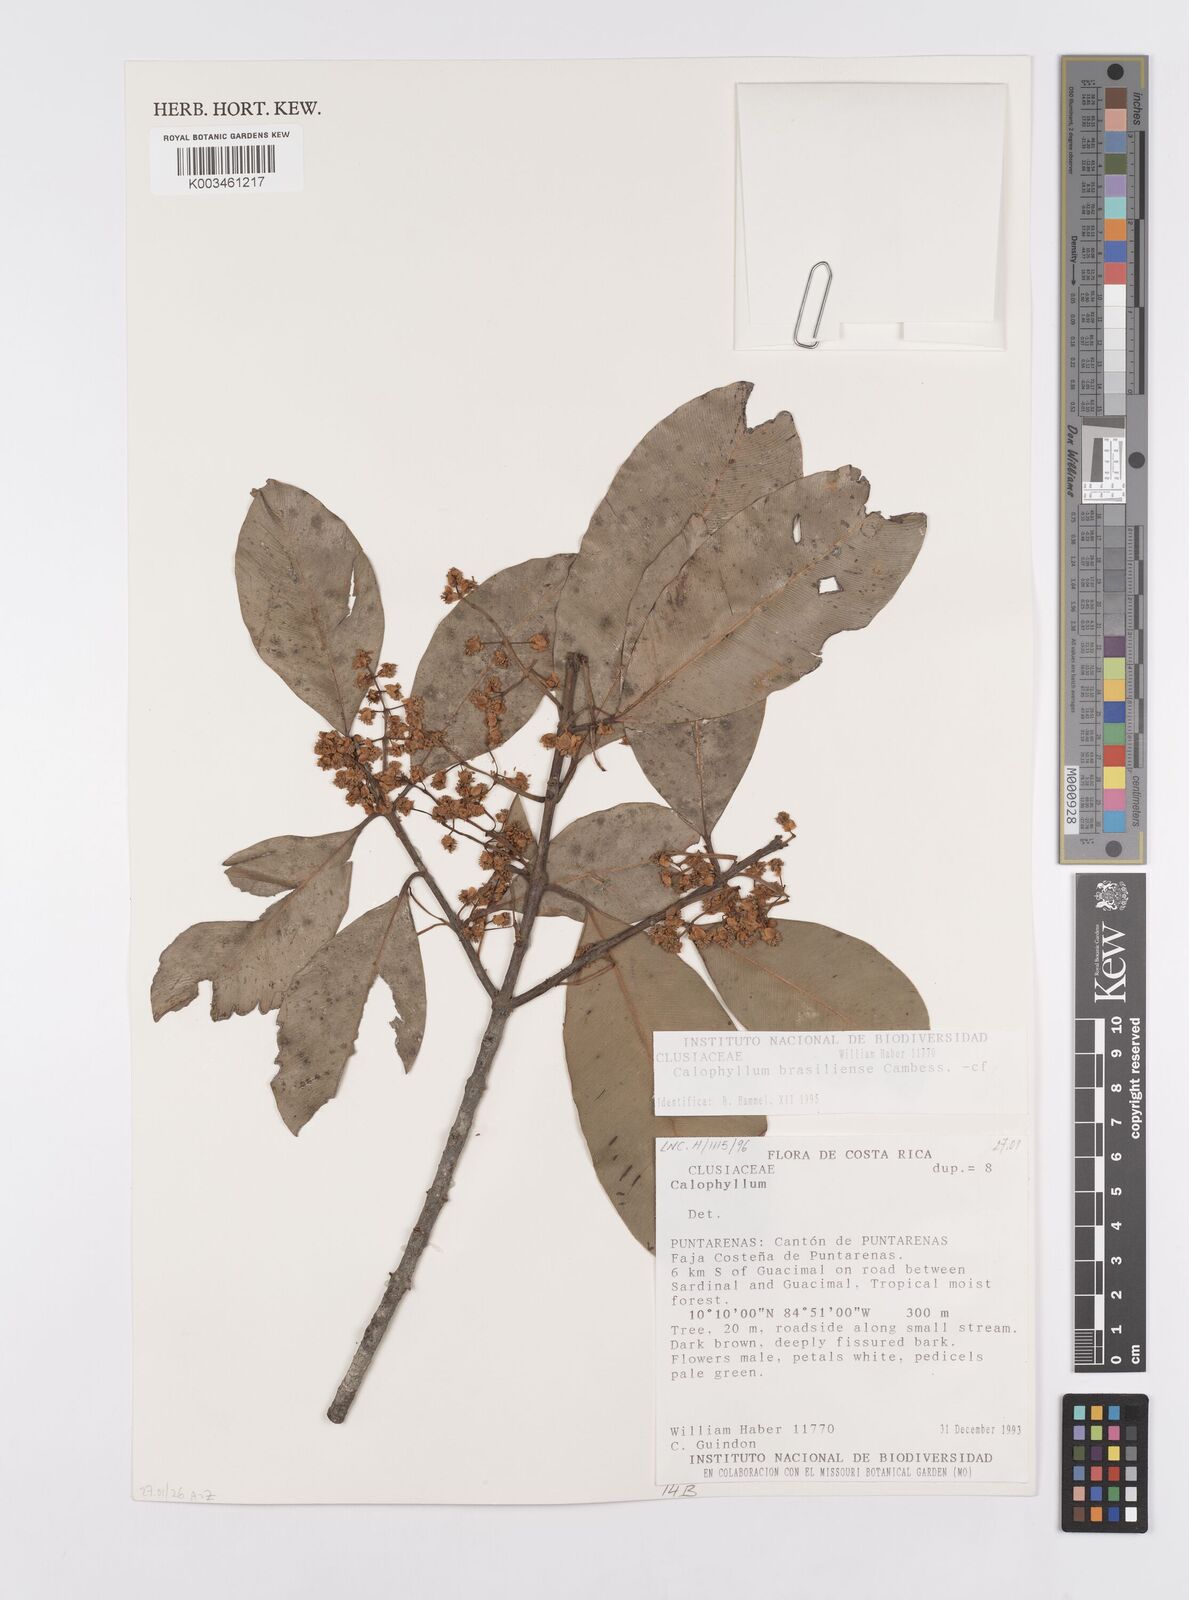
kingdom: Plantae
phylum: Tracheophyta
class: Magnoliopsida
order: Malpighiales
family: Calophyllaceae
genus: Calophyllum
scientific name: Calophyllum brasiliense
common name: Santa maria
